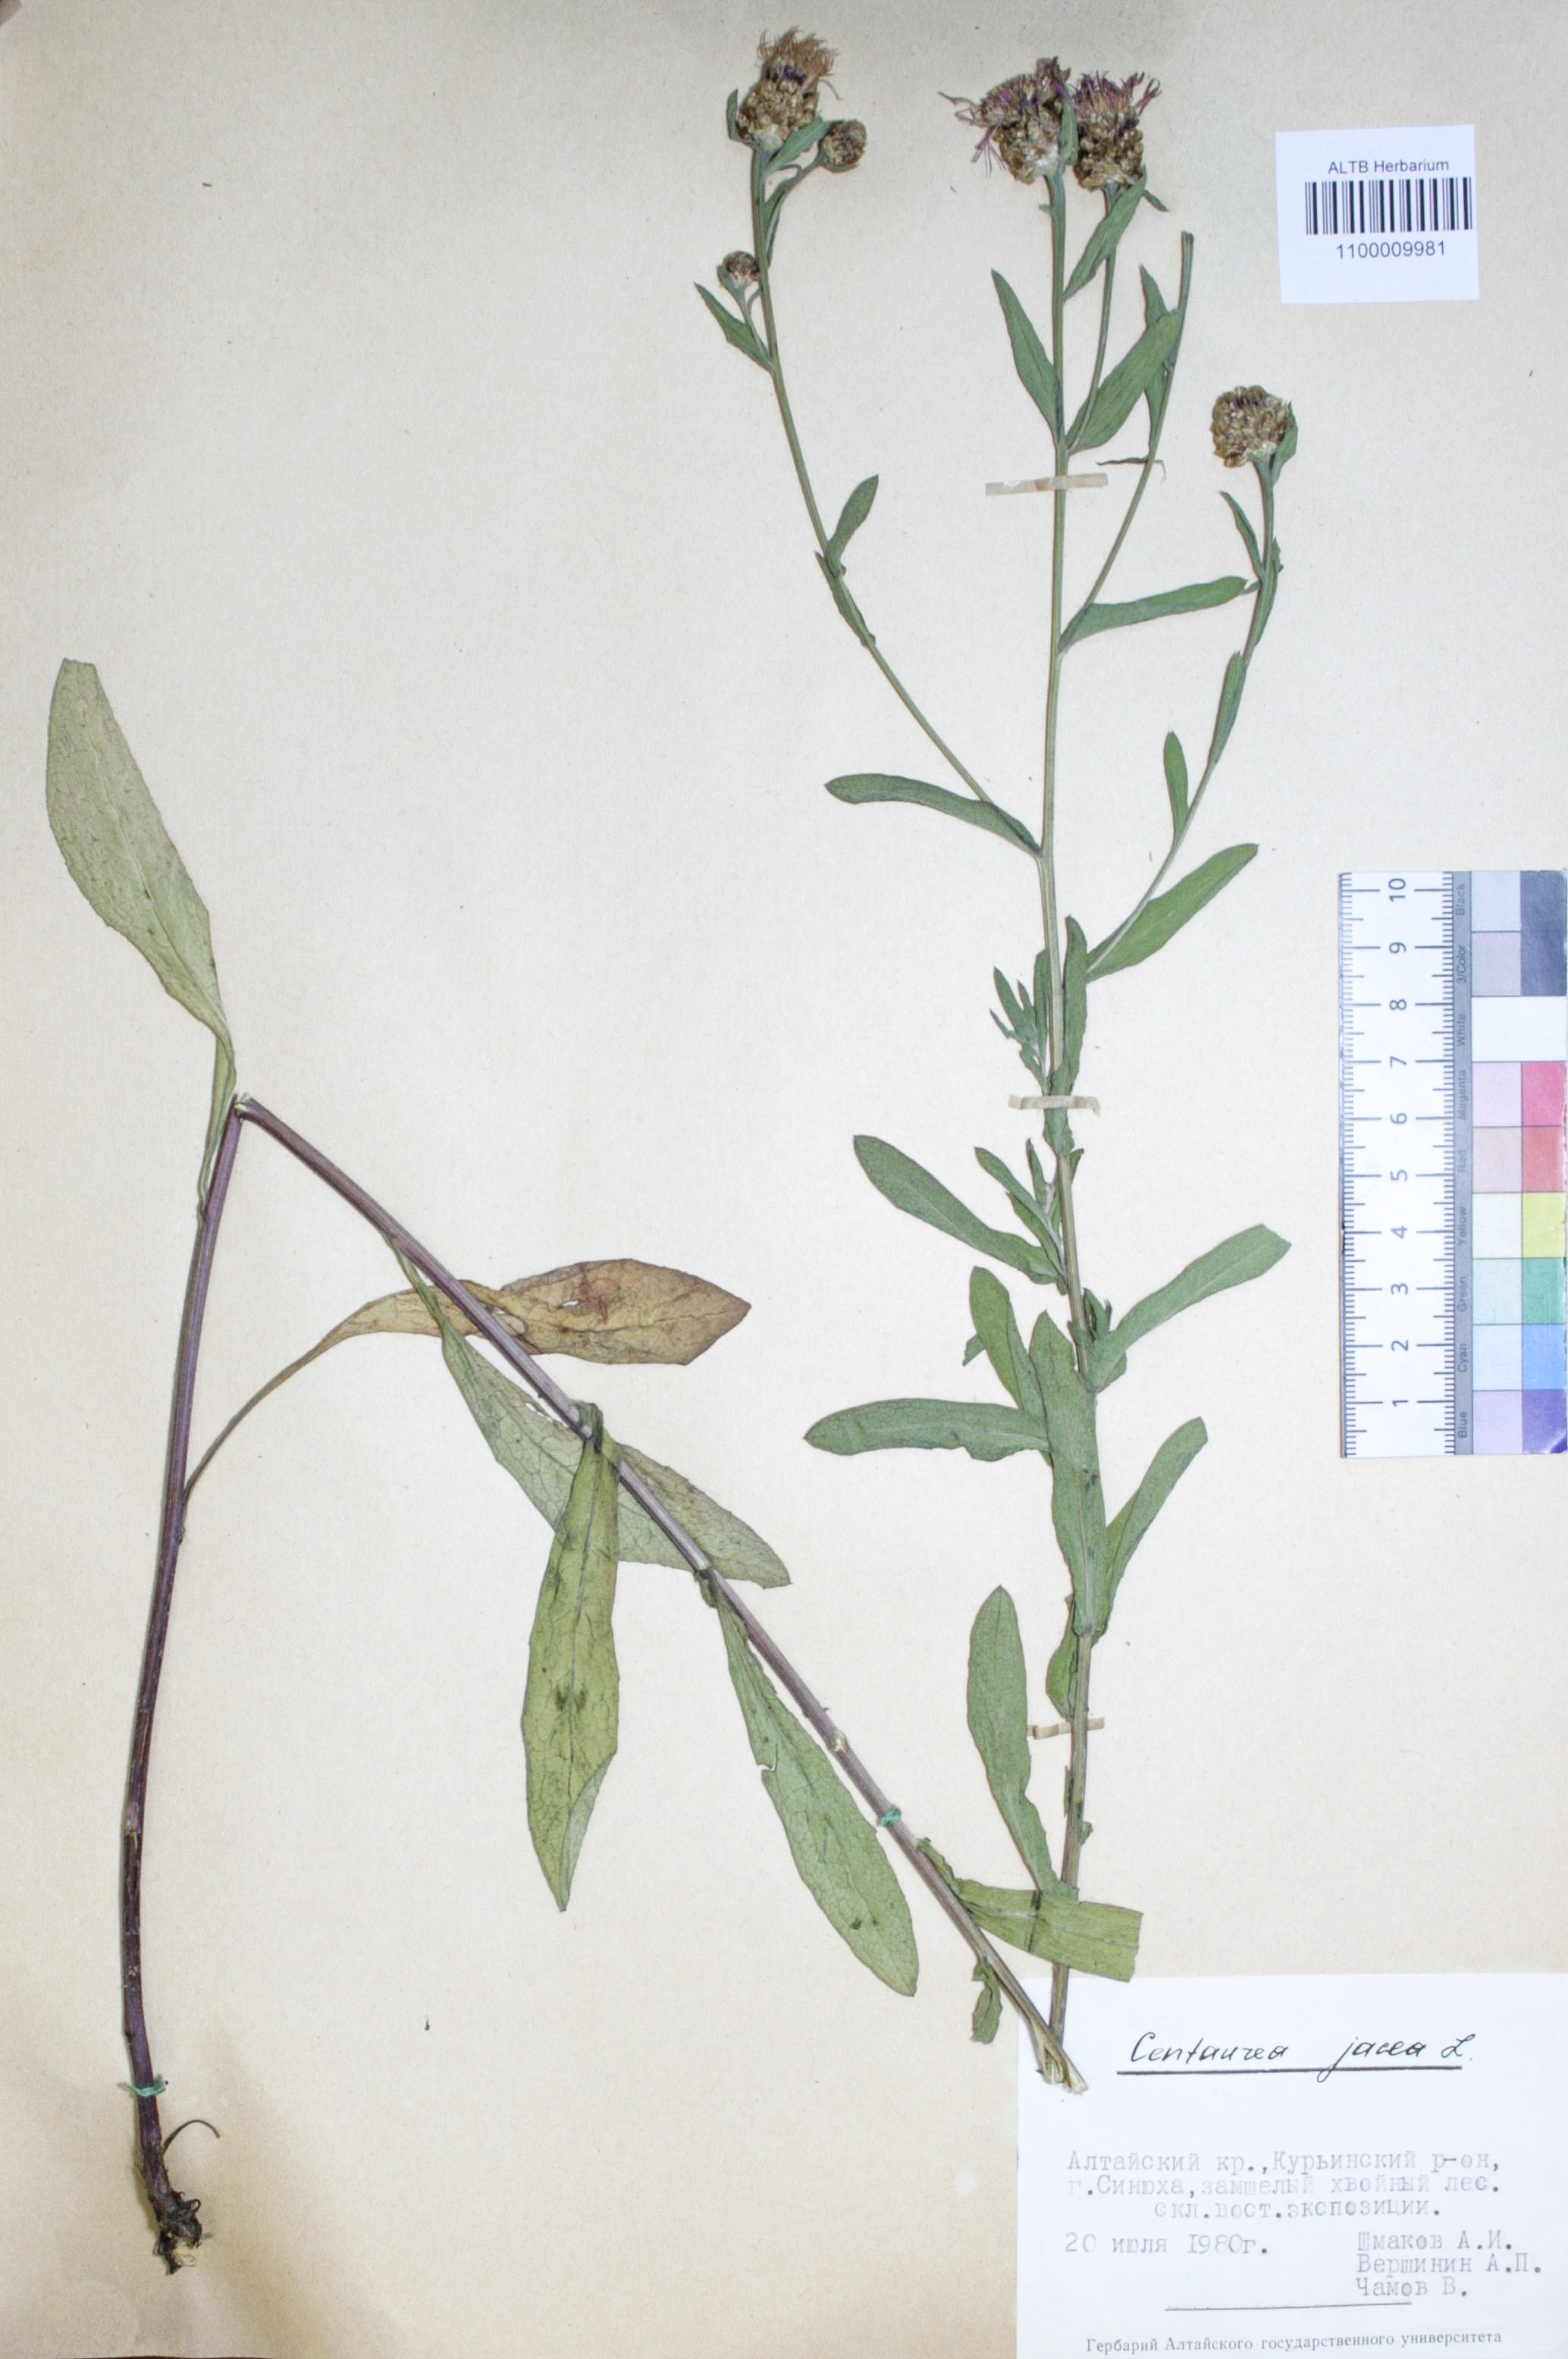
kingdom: Plantae
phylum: Tracheophyta
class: Magnoliopsida
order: Asterales
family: Asteraceae
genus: Centaurea
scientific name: Centaurea jacea
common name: Brown knapweed
